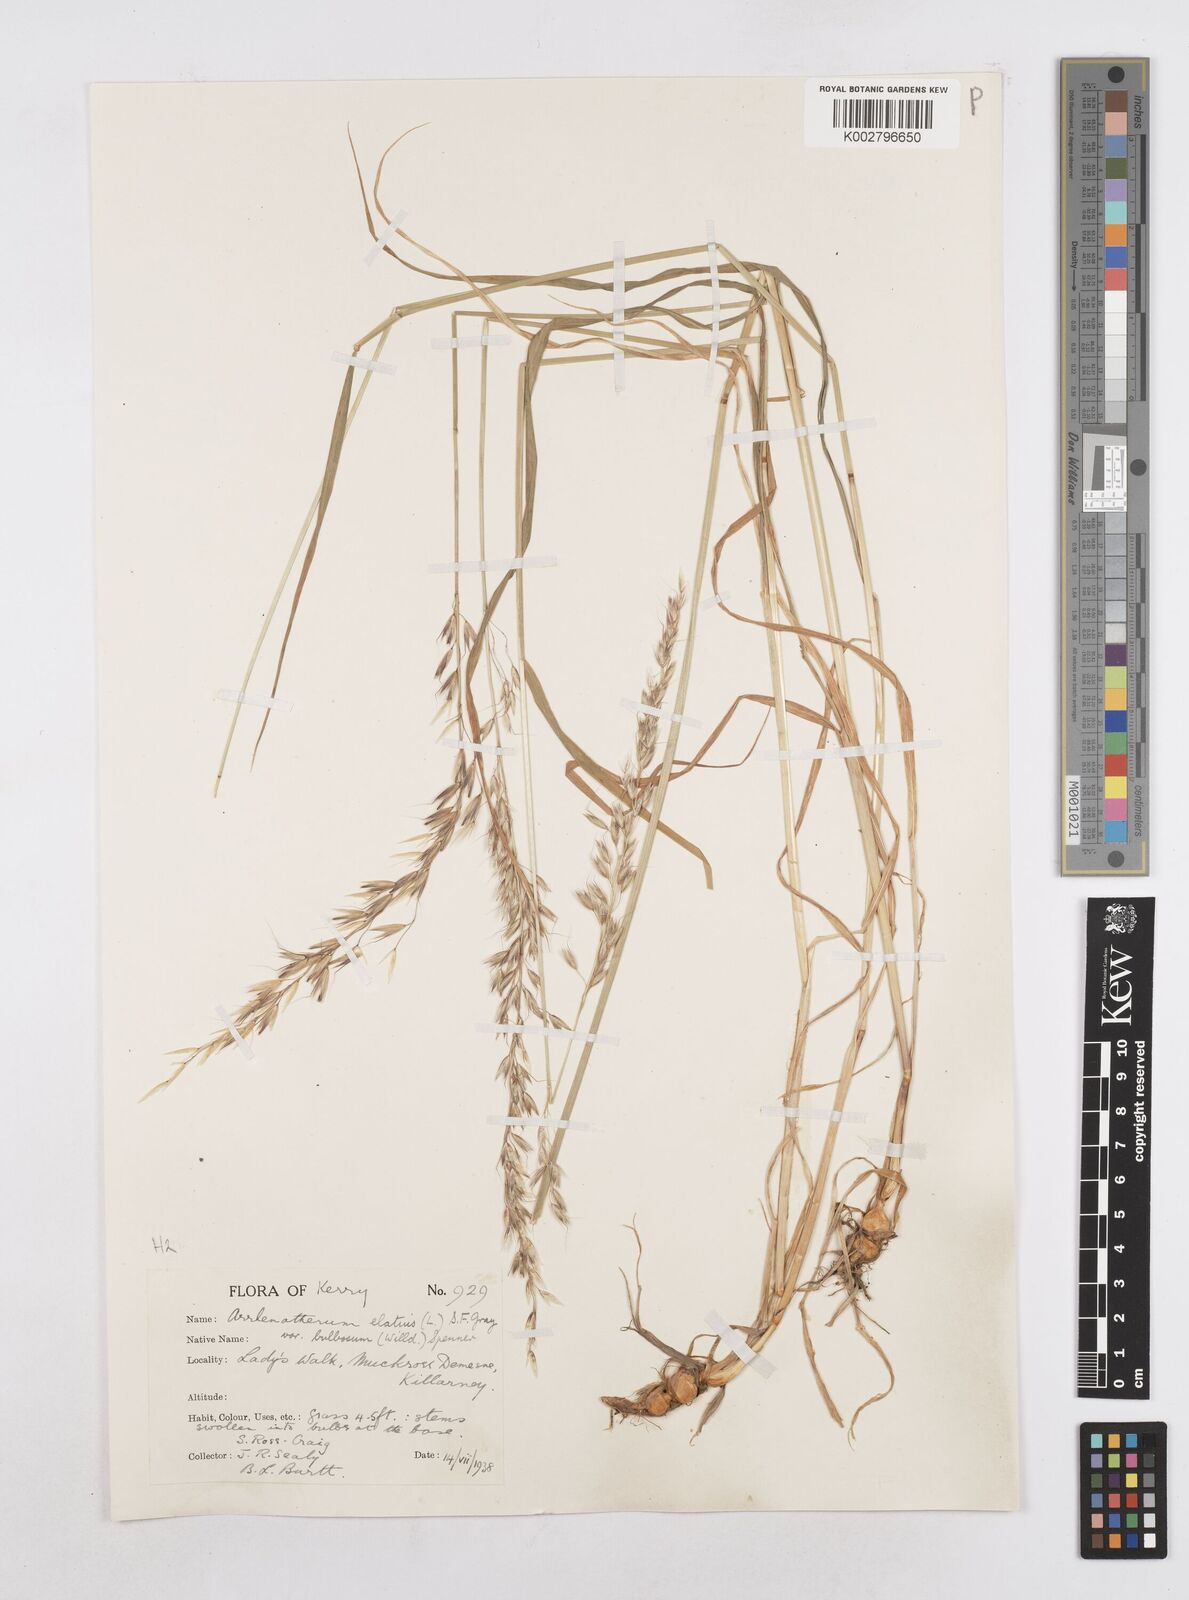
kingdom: Plantae
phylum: Tracheophyta
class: Liliopsida
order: Poales
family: Poaceae
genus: Arrhenatherum
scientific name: Arrhenatherum elatius
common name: Tall oatgrass
